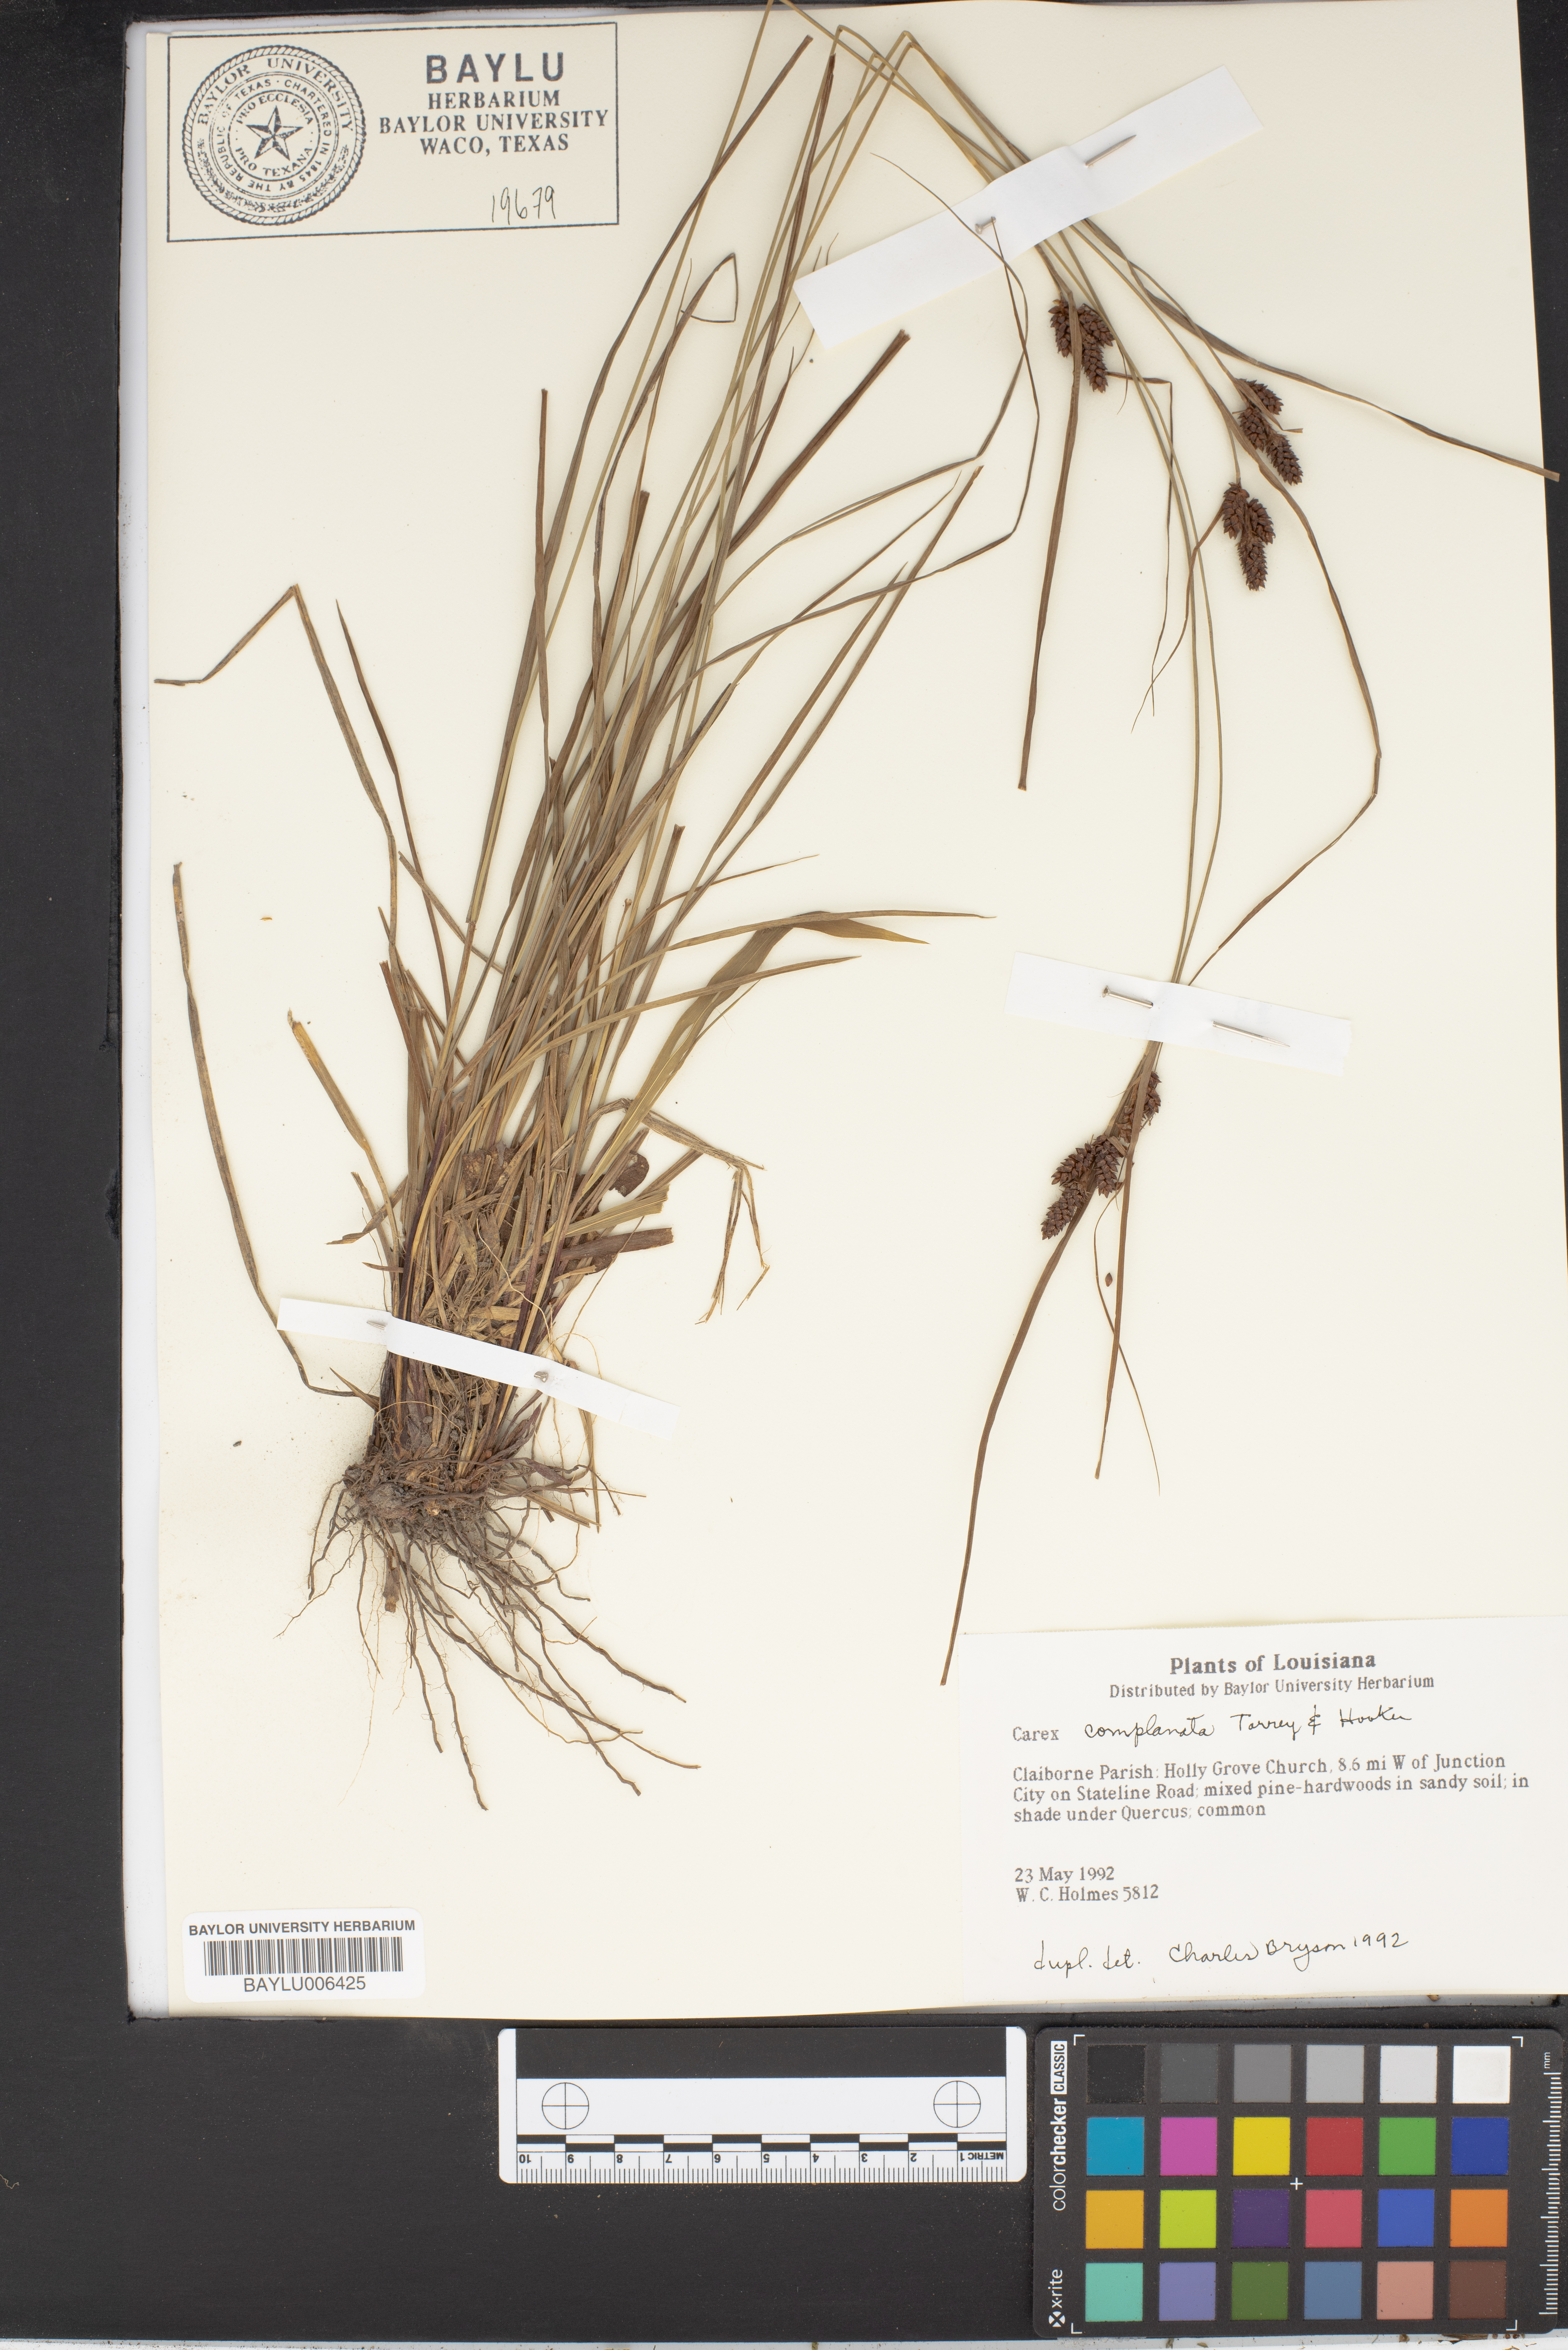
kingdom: Plantae
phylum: Tracheophyta
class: Liliopsida
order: Poales
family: Cyperaceae
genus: Carex
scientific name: Carex complanata
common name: Hirsute sedge
